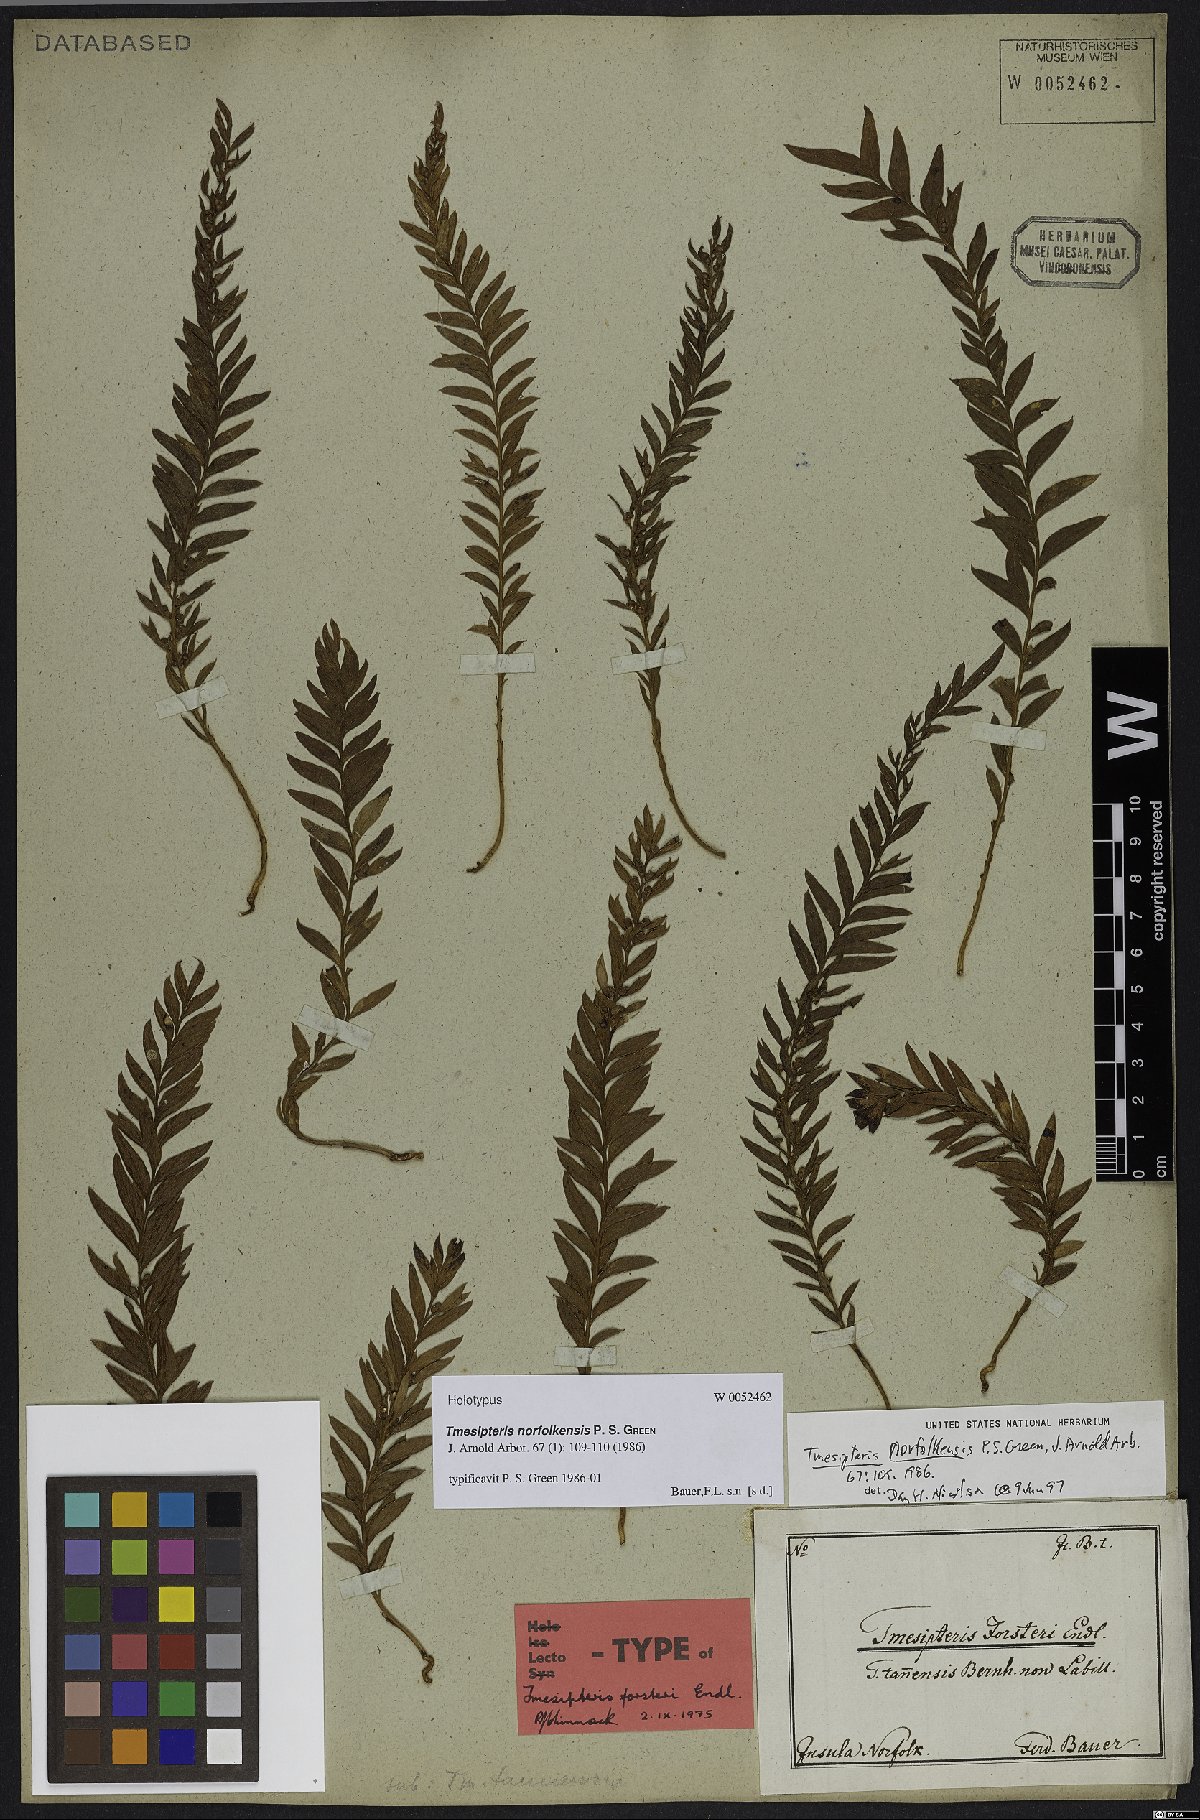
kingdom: Plantae
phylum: Tracheophyta
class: Polypodiopsida
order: Psilotales
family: Psilotaceae
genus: Tmesipteris
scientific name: Tmesipteris norfolkensis
